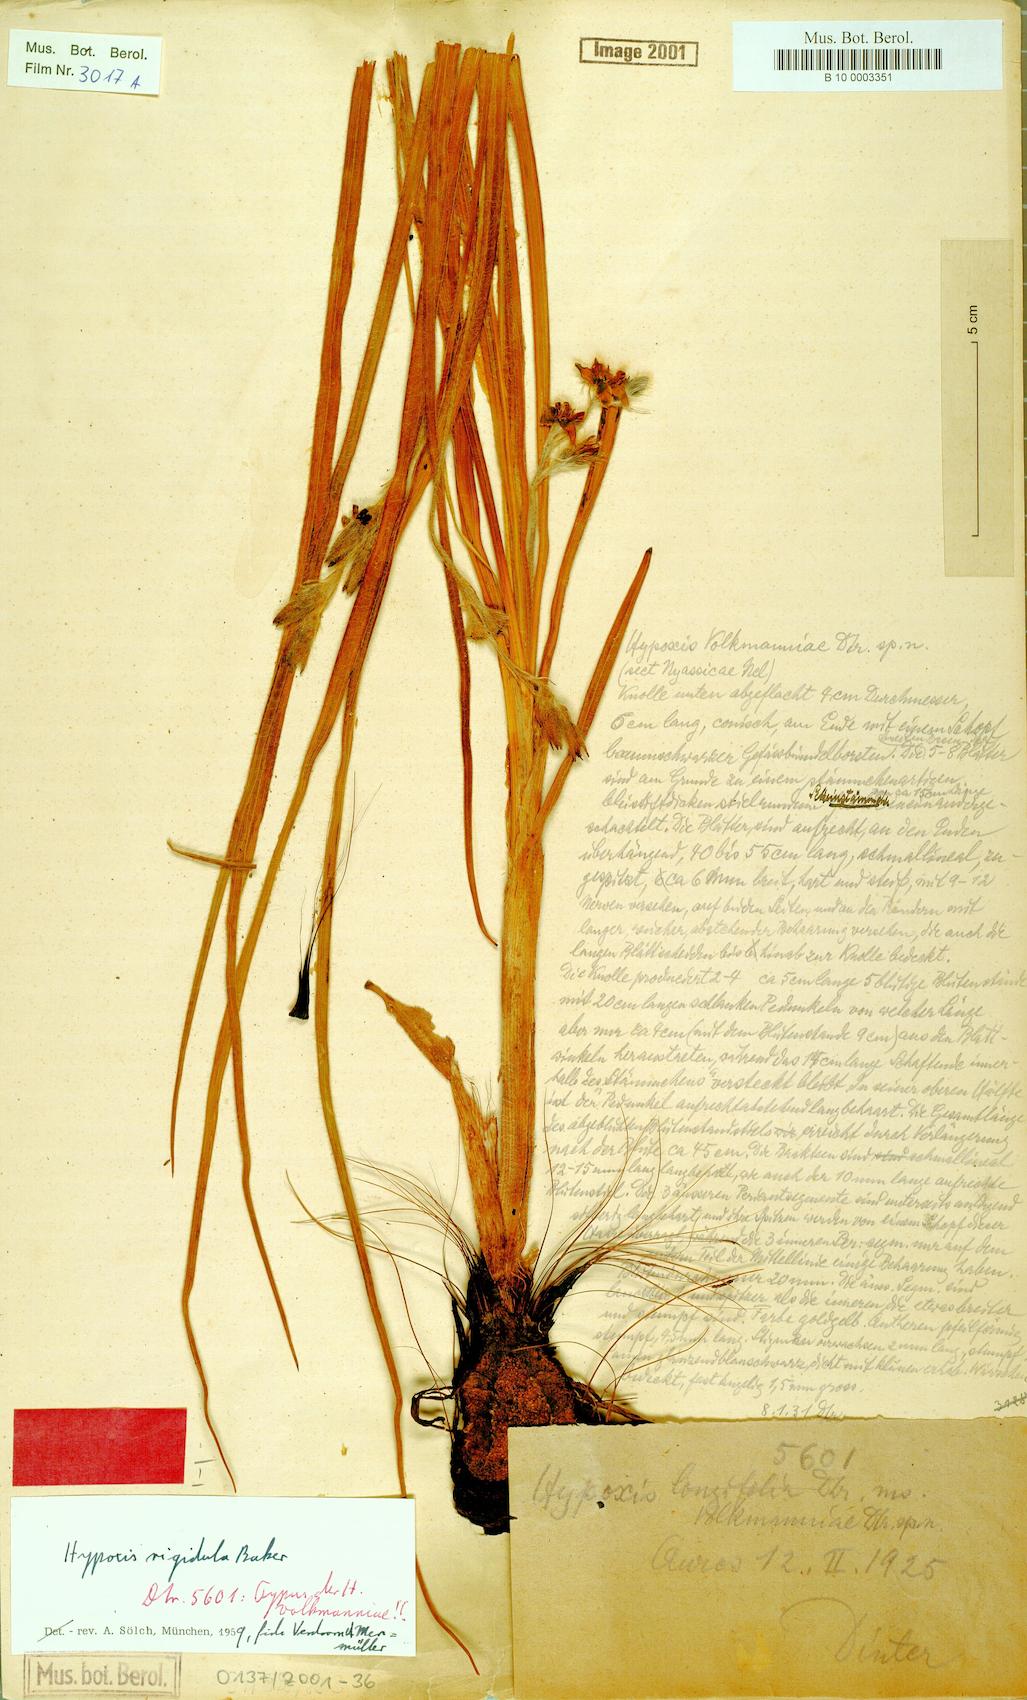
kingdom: Plantae
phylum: Tracheophyta
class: Liliopsida
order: Asparagales
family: Hypoxidaceae
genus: Hypoxis
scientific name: Hypoxis rigidula
